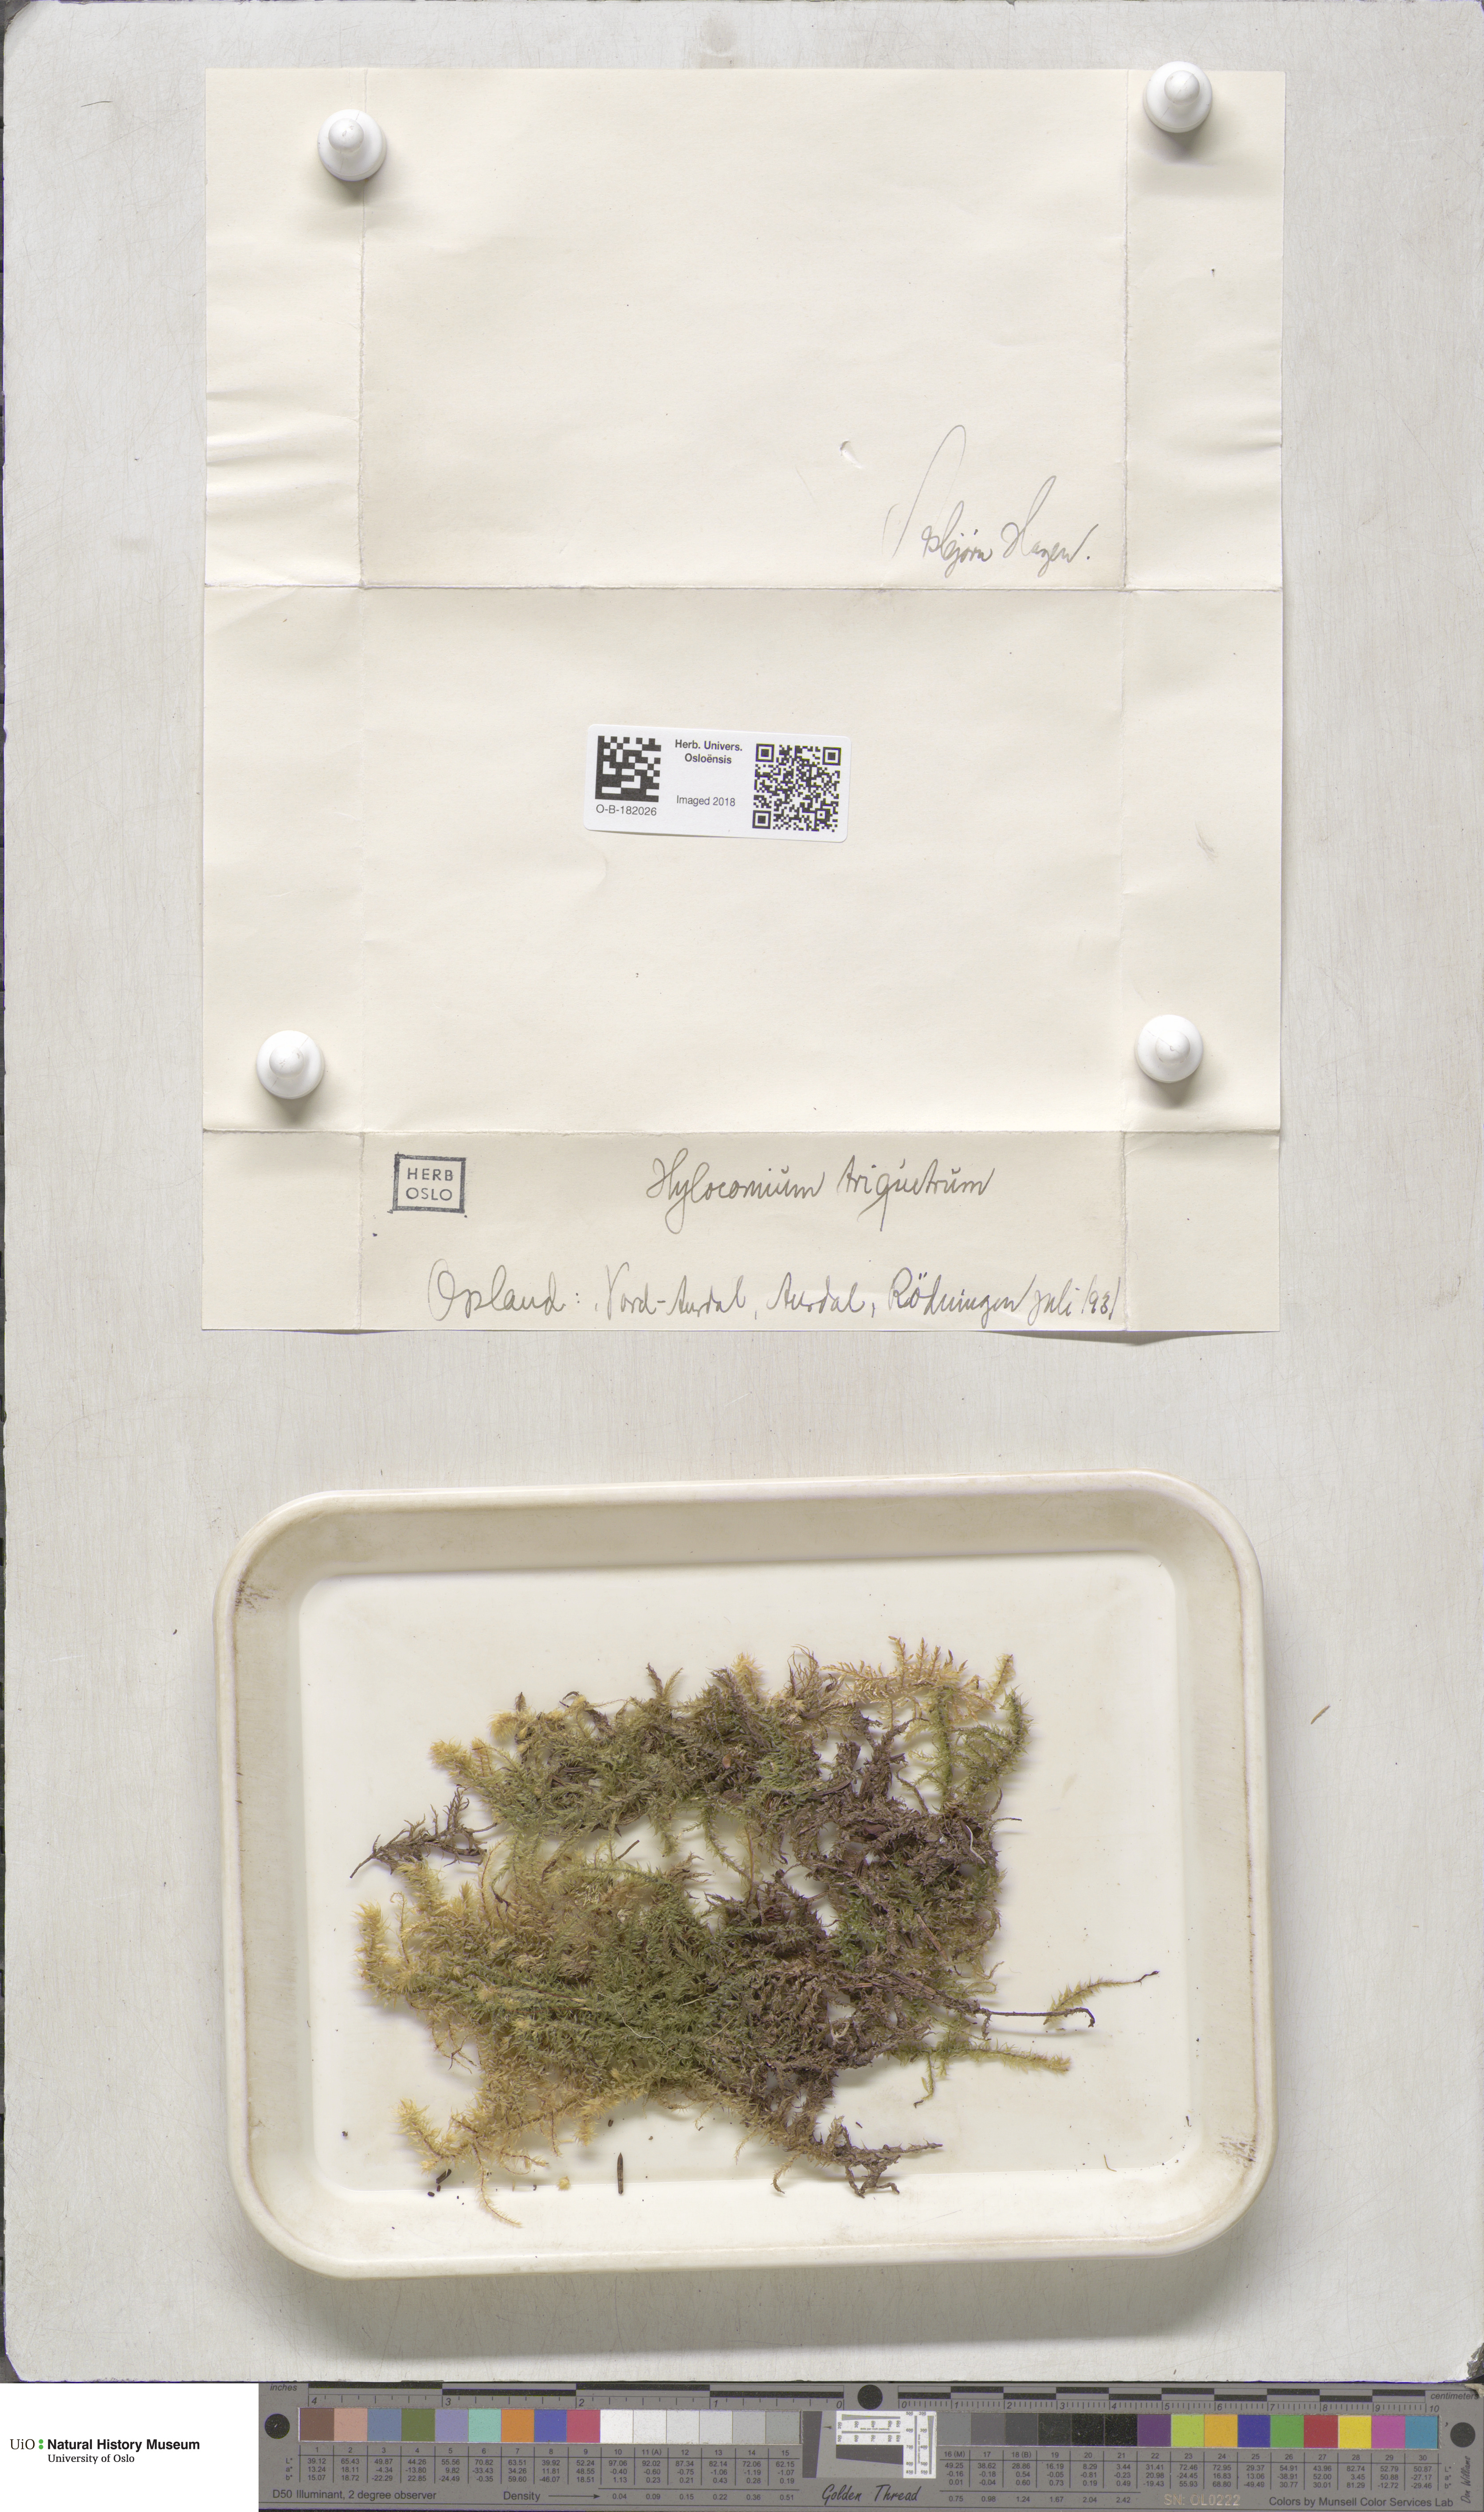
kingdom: Plantae
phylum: Bryophyta
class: Bryopsida
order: Hypnales
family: Hylocomiaceae
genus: Hylocomiadelphus
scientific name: Hylocomiadelphus triquetrus
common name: Rough goose neck moss
